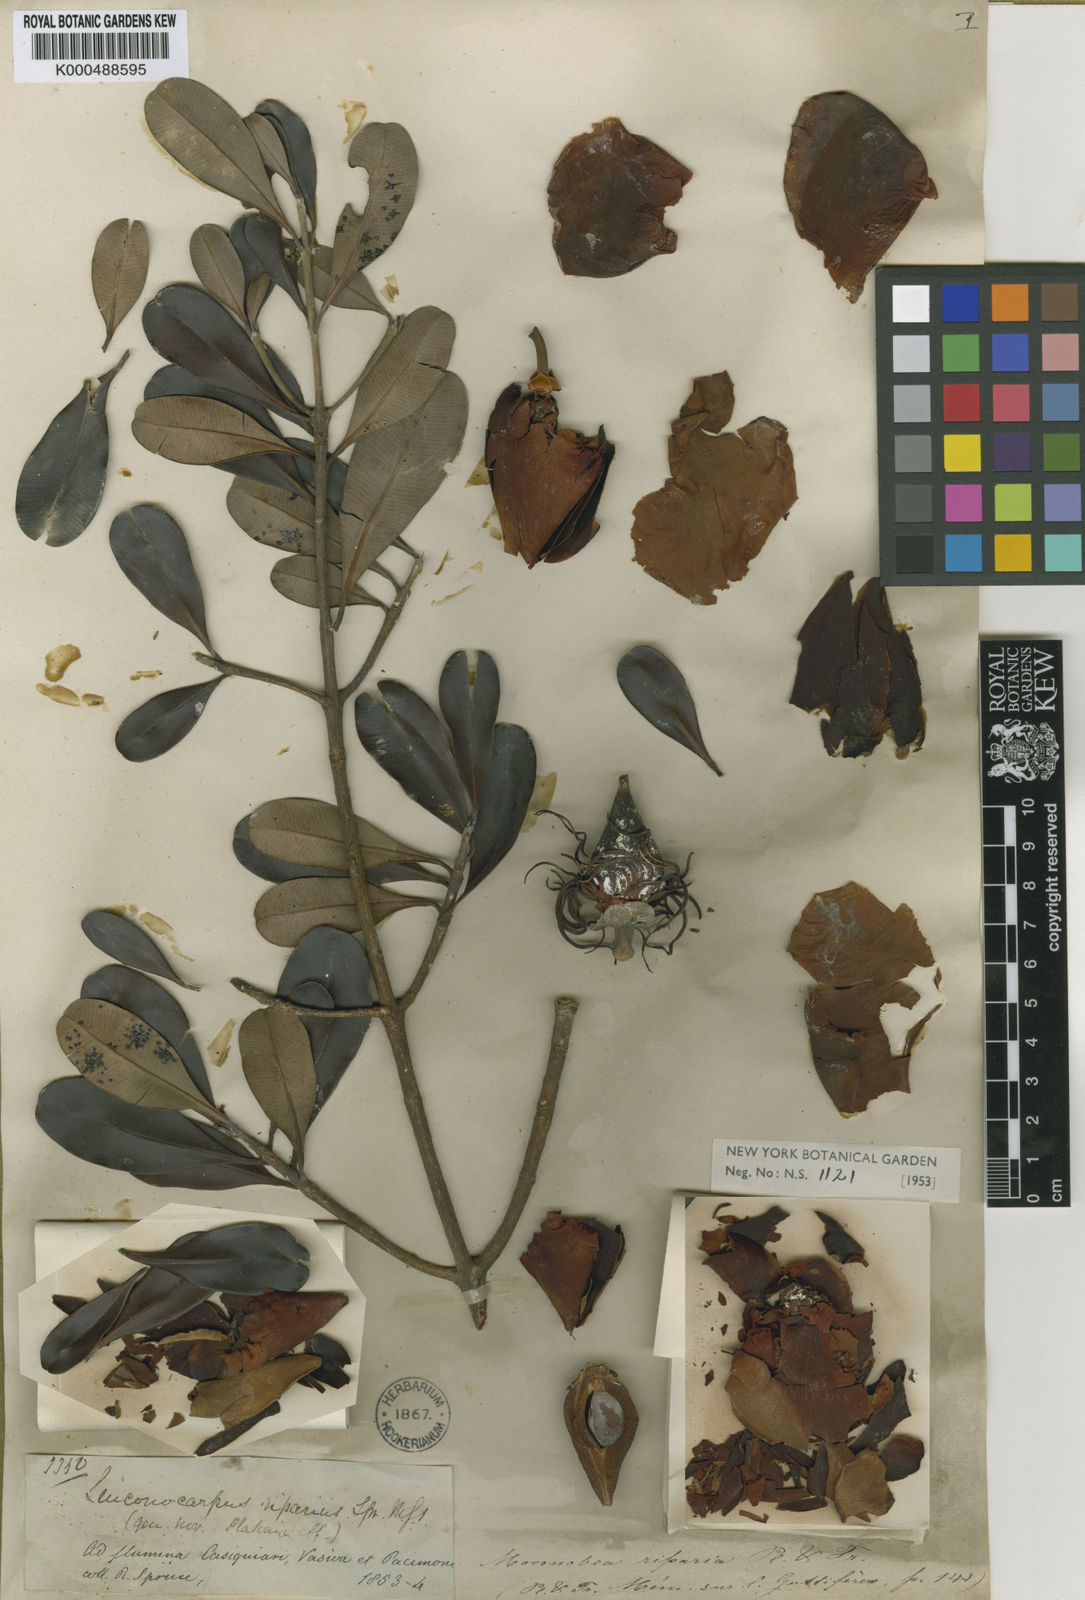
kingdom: Plantae
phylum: Tracheophyta
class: Magnoliopsida
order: Malpighiales
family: Clusiaceae
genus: Moronobea
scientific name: Moronobea riparia
